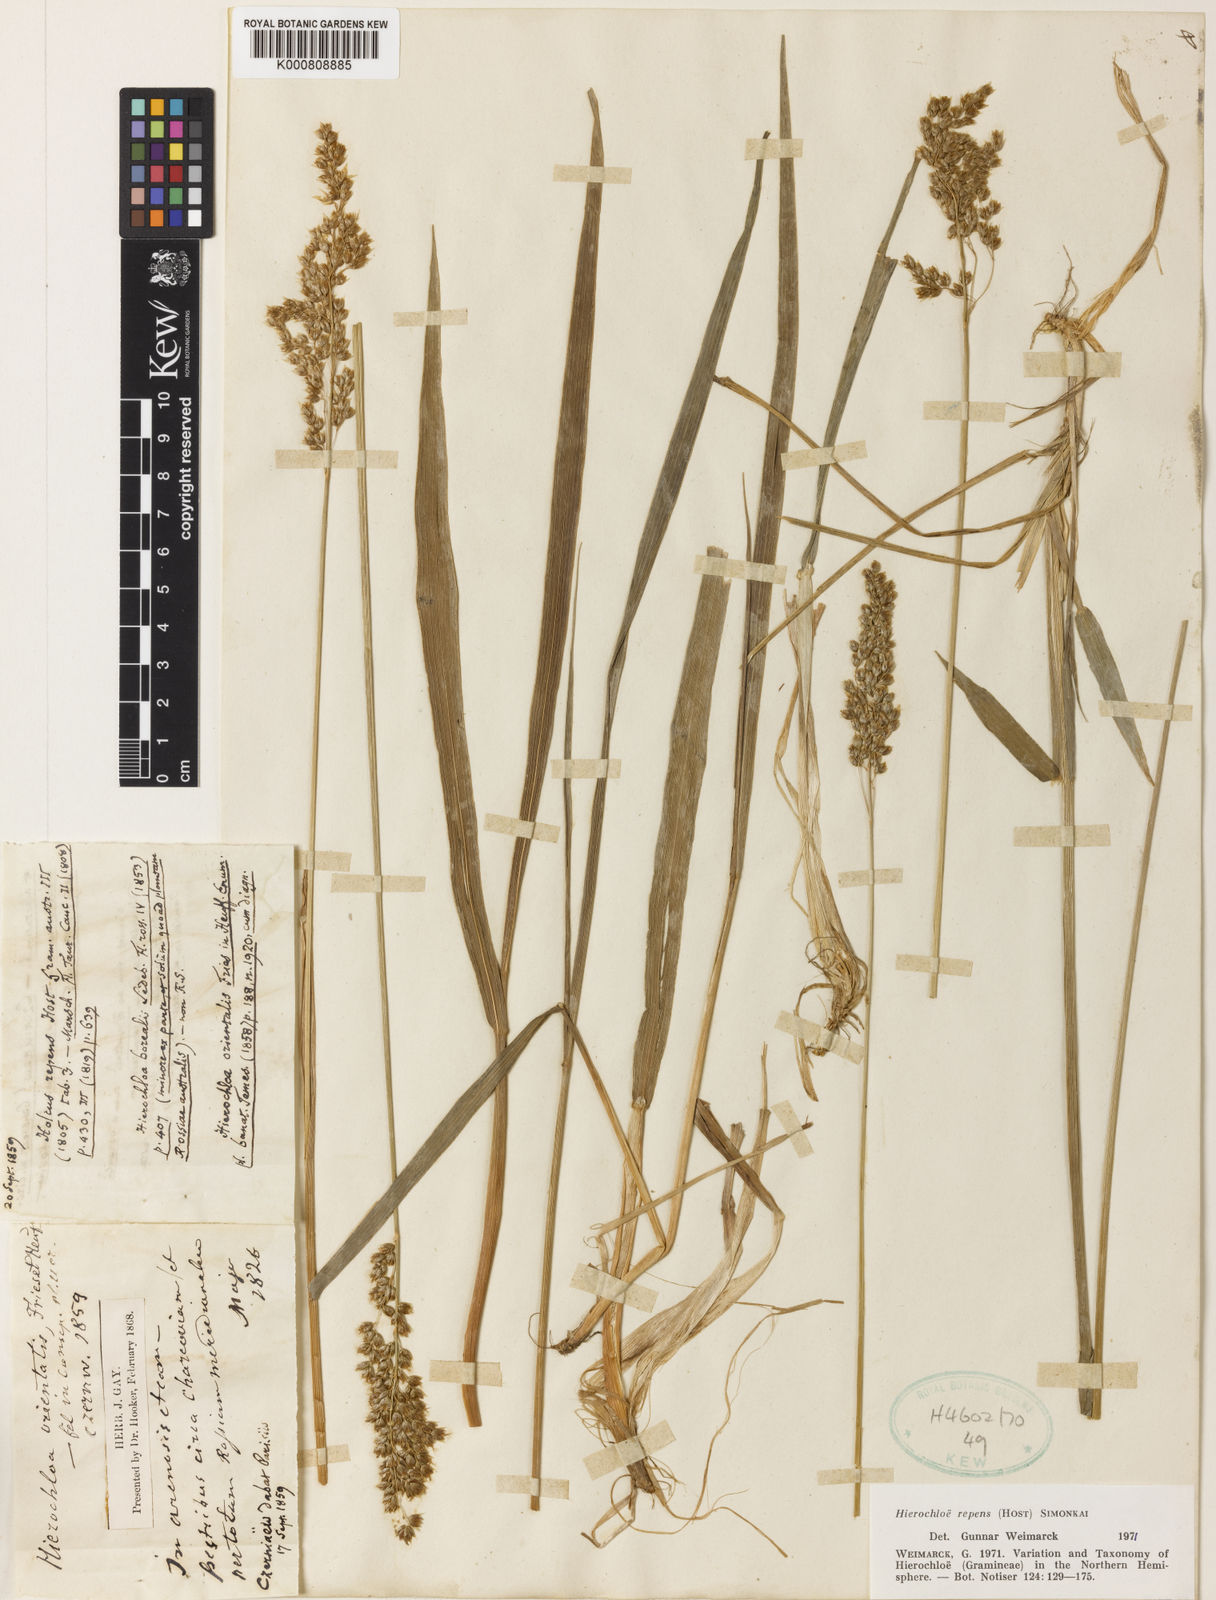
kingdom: Plantae
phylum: Tracheophyta
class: Liliopsida
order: Poales
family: Poaceae
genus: Anthoxanthum
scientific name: Anthoxanthum nitens
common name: Holy grass
